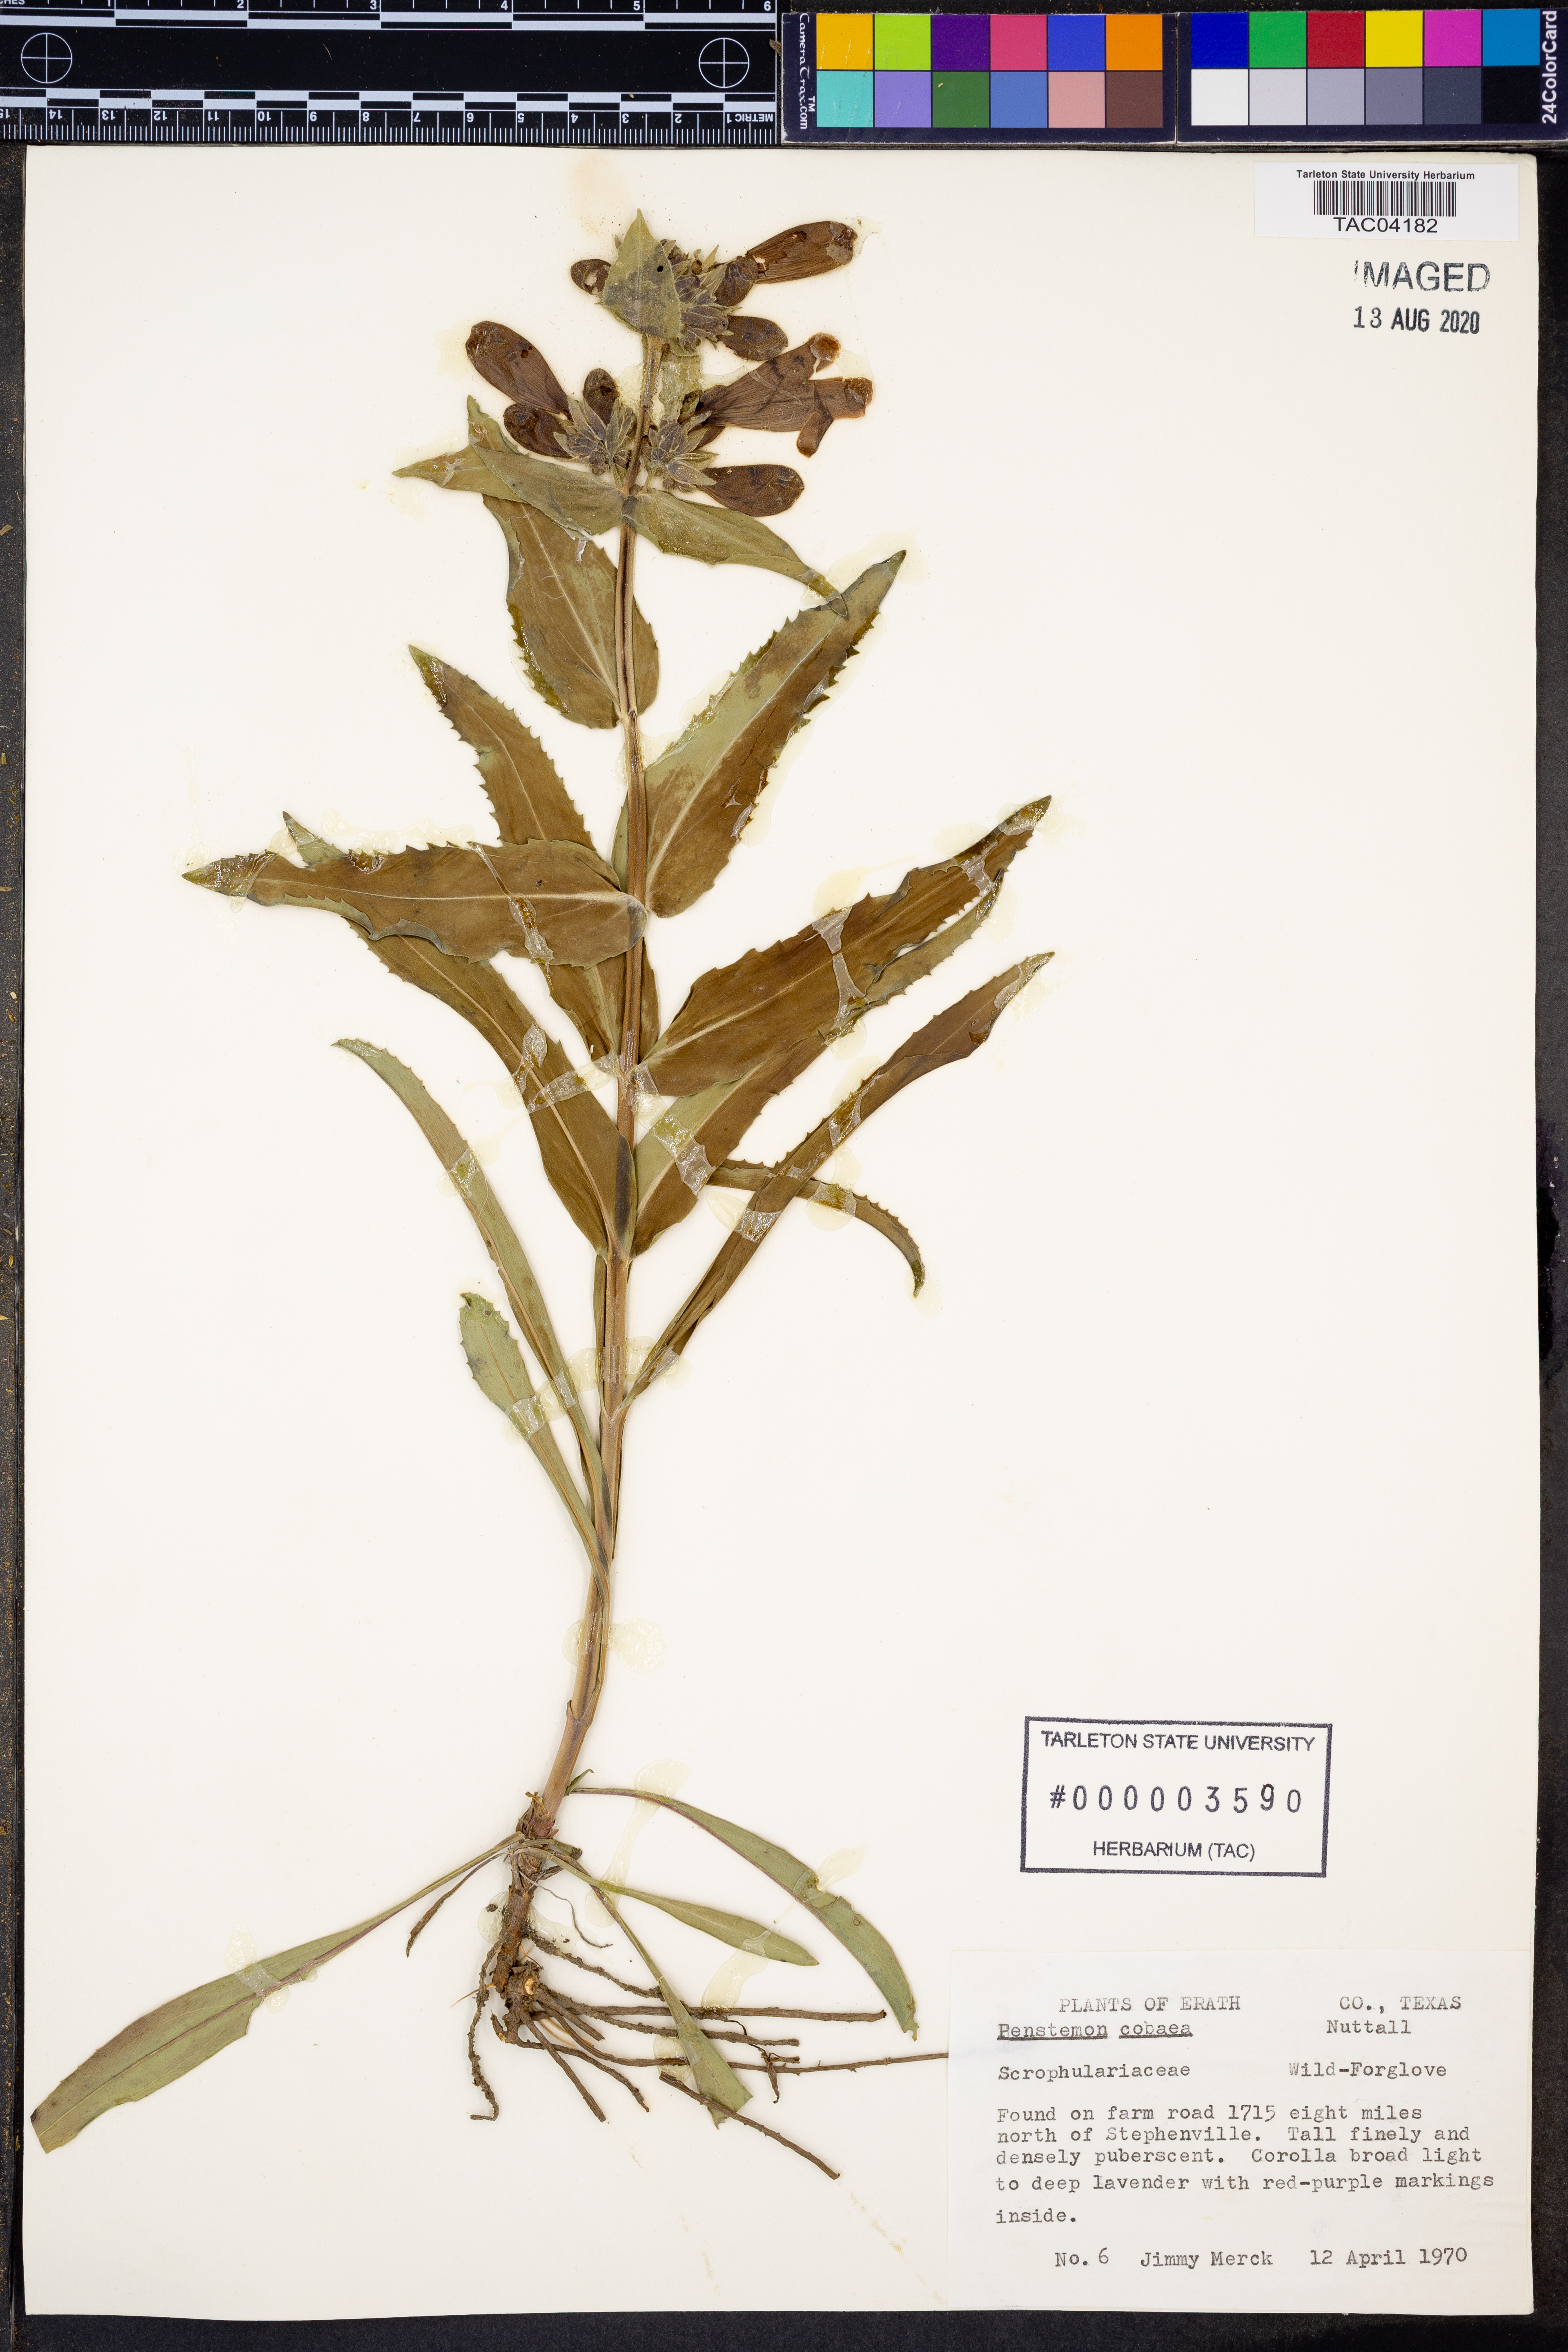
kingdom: Plantae
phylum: Tracheophyta
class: Magnoliopsida
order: Lamiales
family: Plantaginaceae
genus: Penstemon
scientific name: Penstemon cobaea
